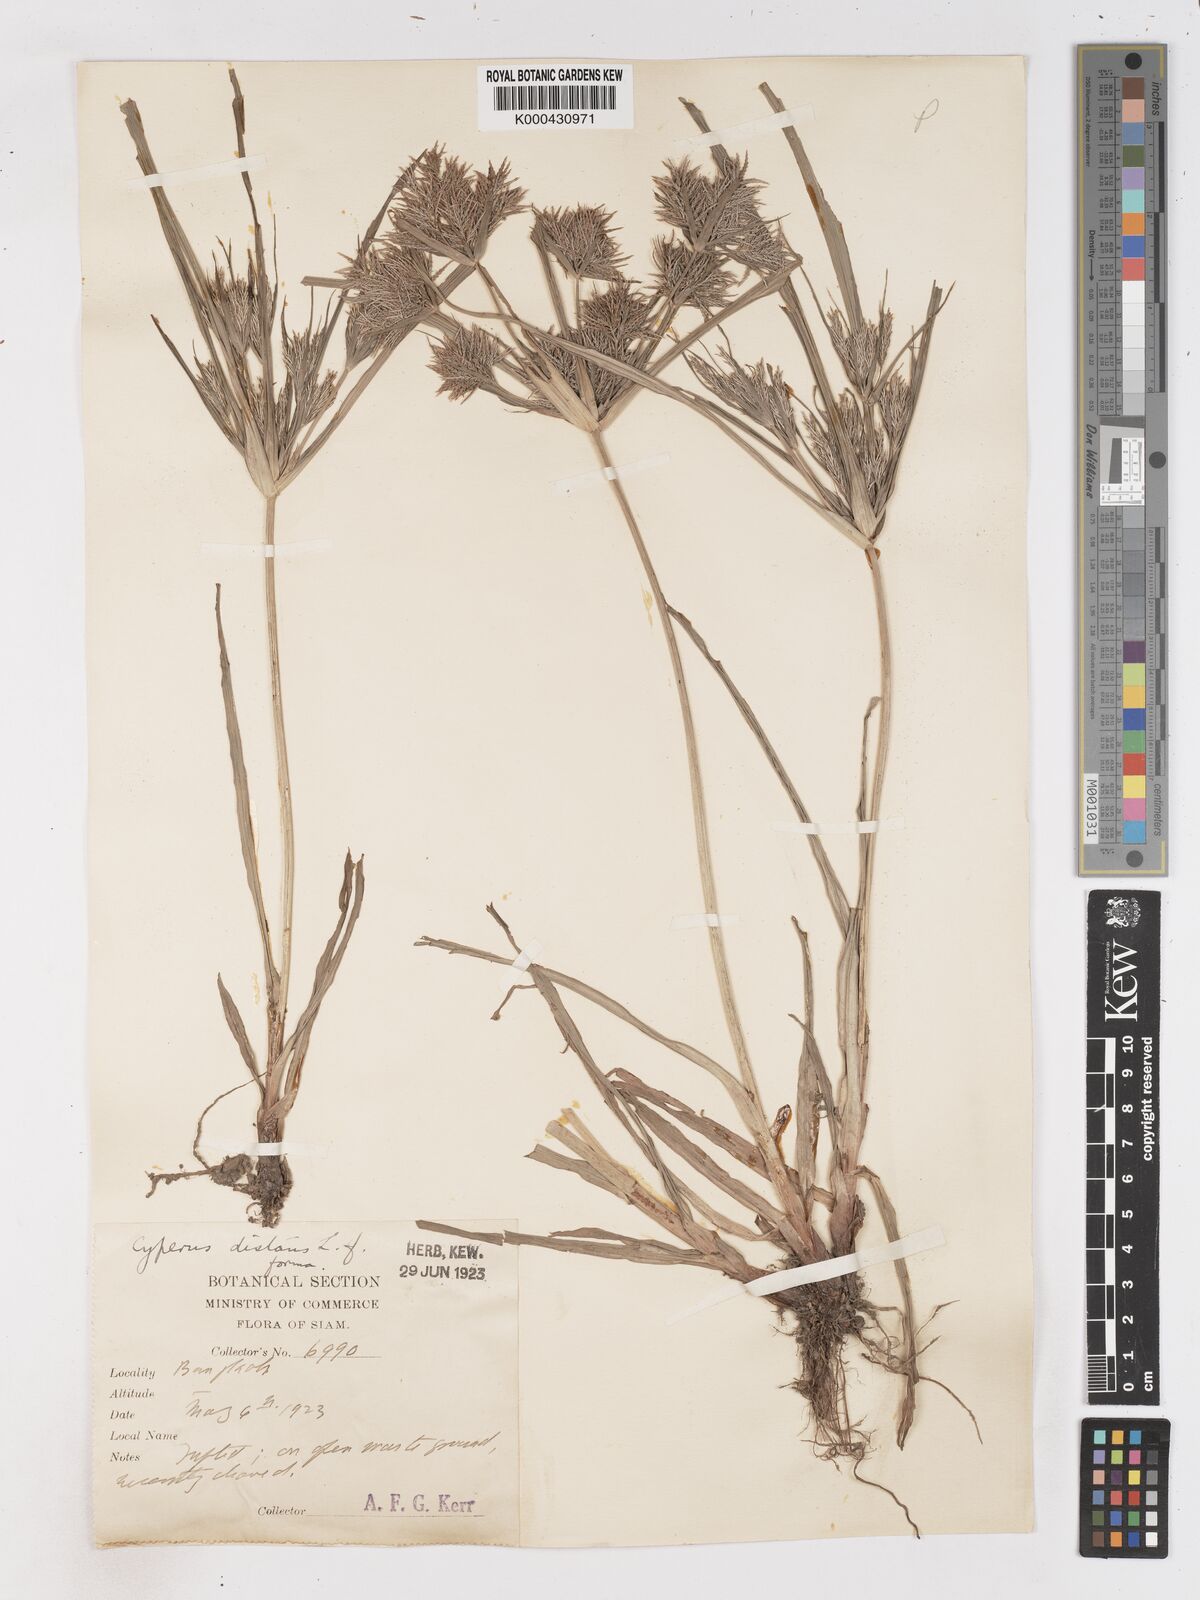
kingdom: Plantae
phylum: Tracheophyta
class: Liliopsida
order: Poales
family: Cyperaceae
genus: Cyperus
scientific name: Cyperus distans
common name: Slender cyperus
